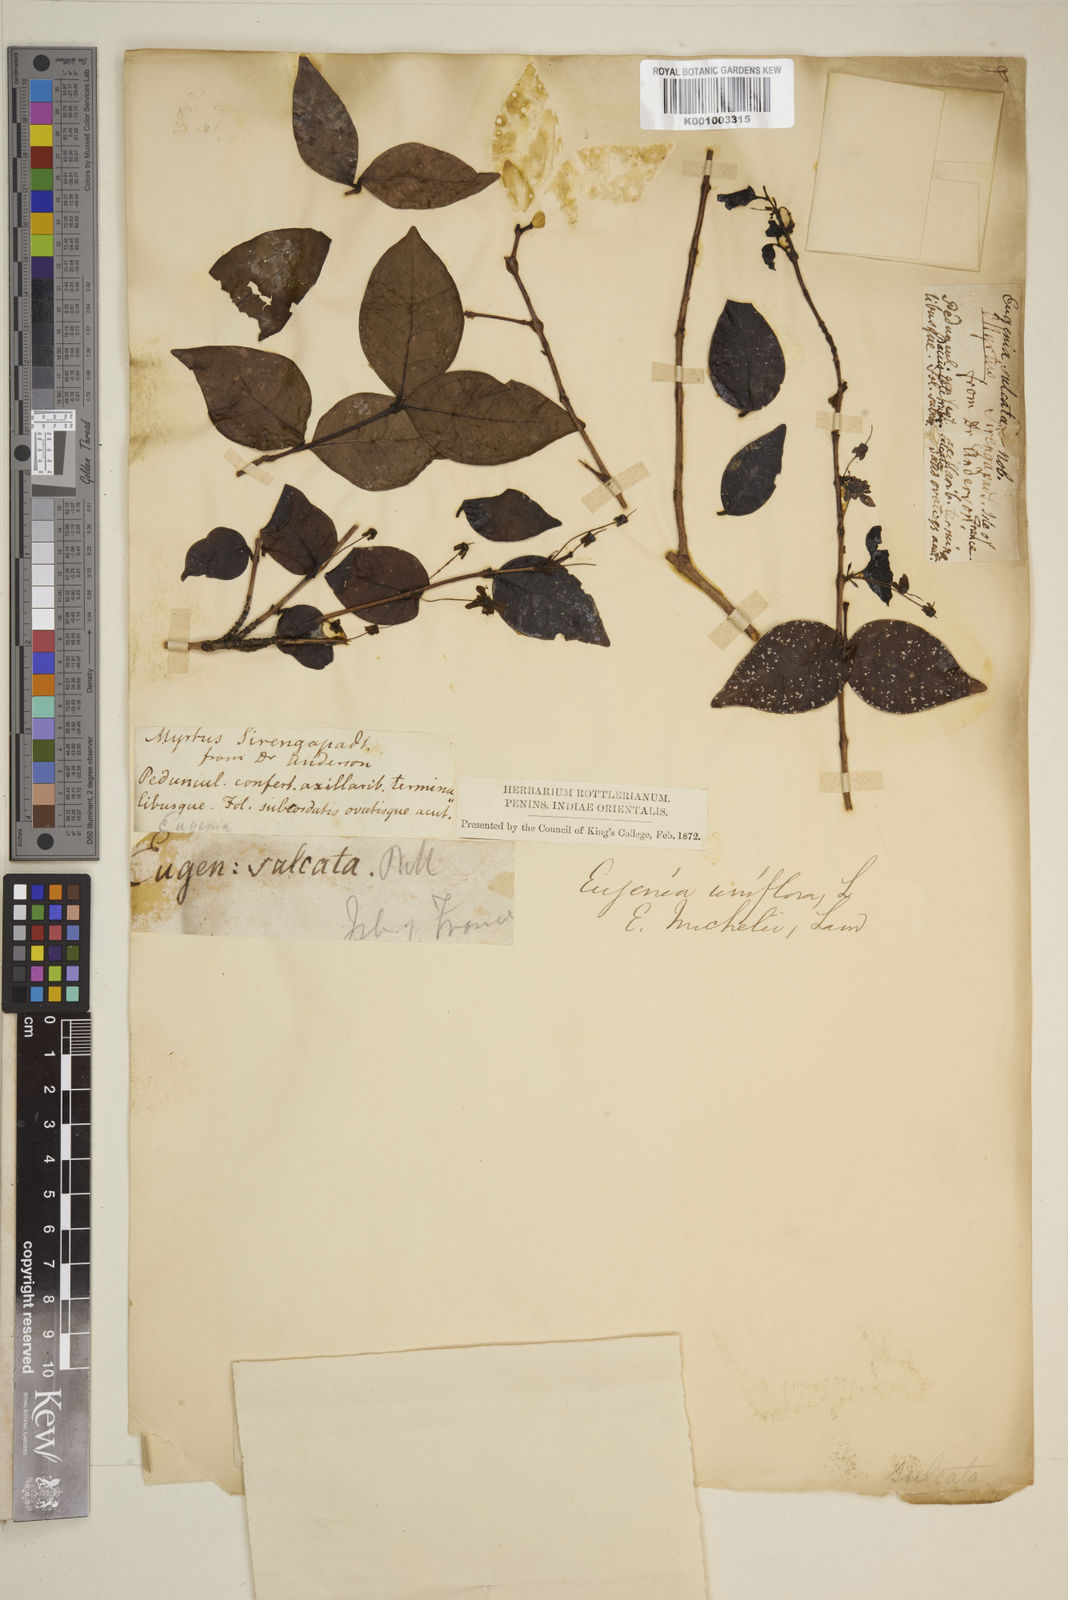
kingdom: Plantae
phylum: Tracheophyta
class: Magnoliopsida
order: Myrtales
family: Myrtaceae
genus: Eugenia
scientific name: Eugenia uniflora
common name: Surinam cherry
